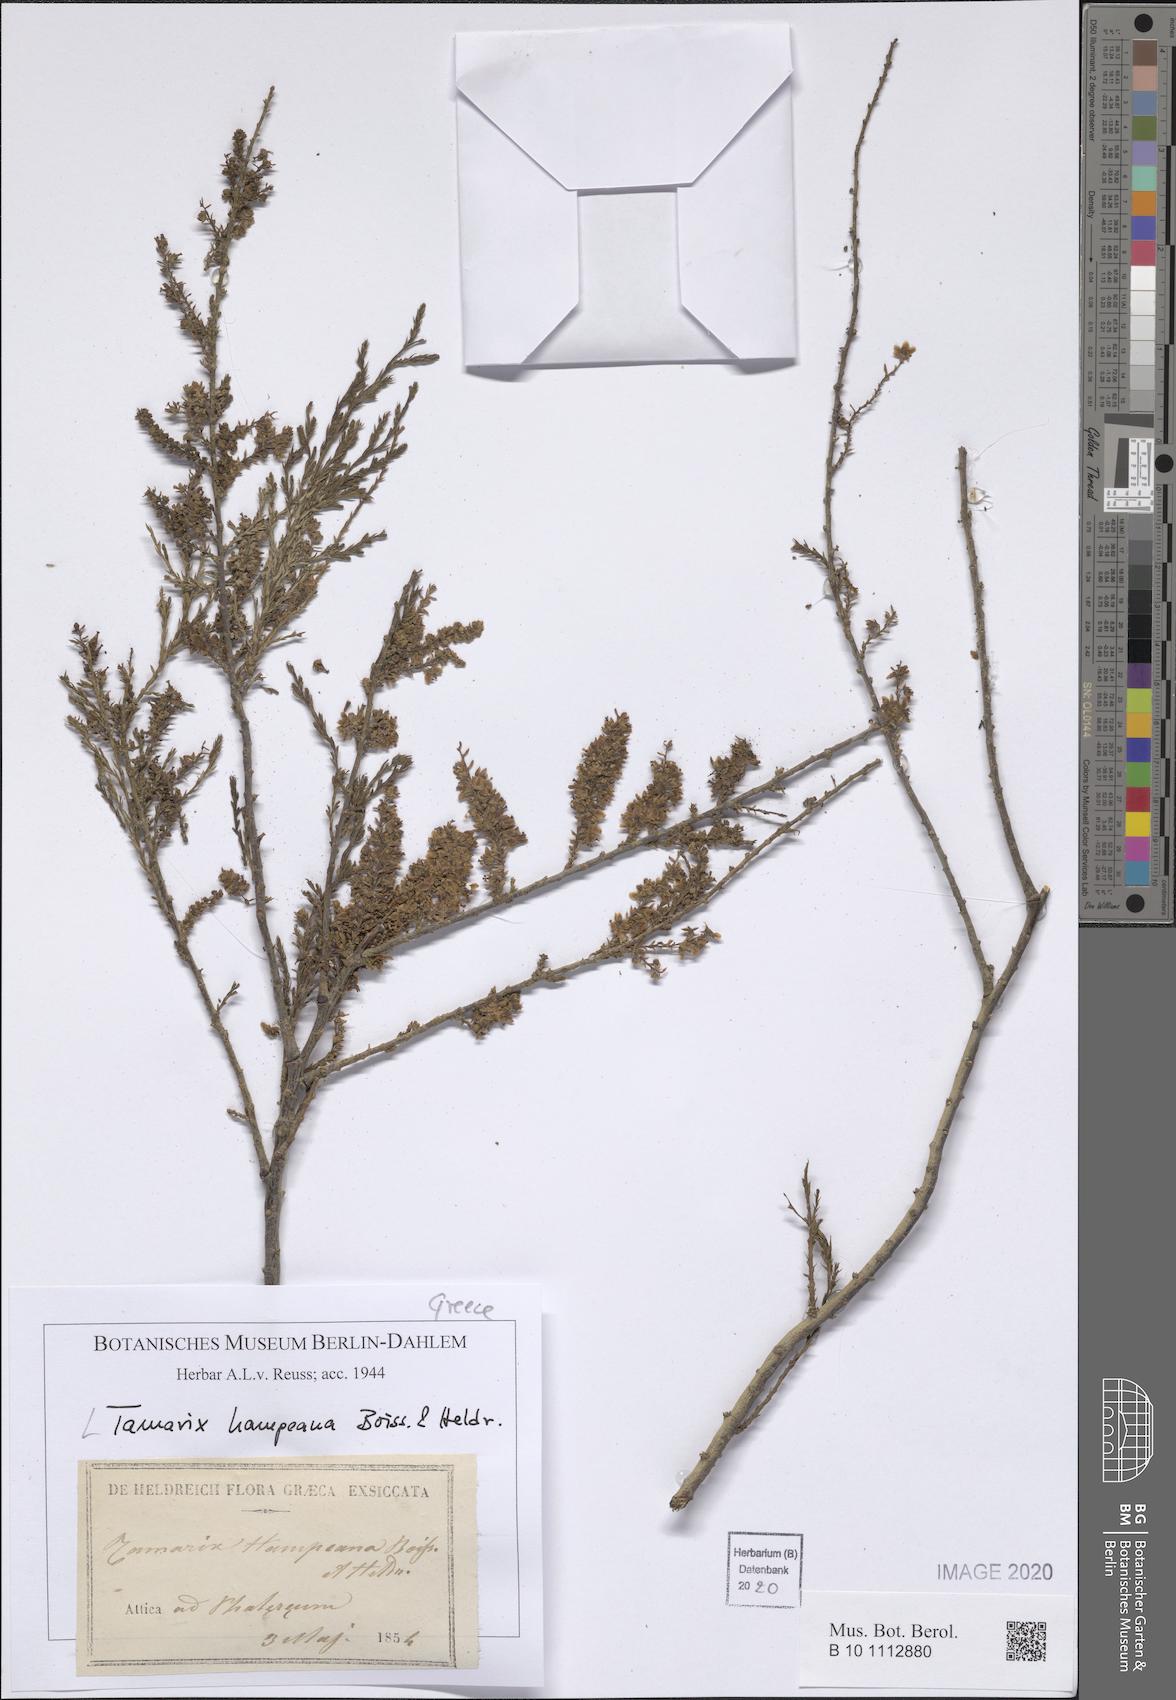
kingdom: Plantae
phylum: Tracheophyta
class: Magnoliopsida
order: Caryophyllales
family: Tamaricaceae
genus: Tamarix
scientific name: Tamarix hampeana
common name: Hampe’s tamarisk
